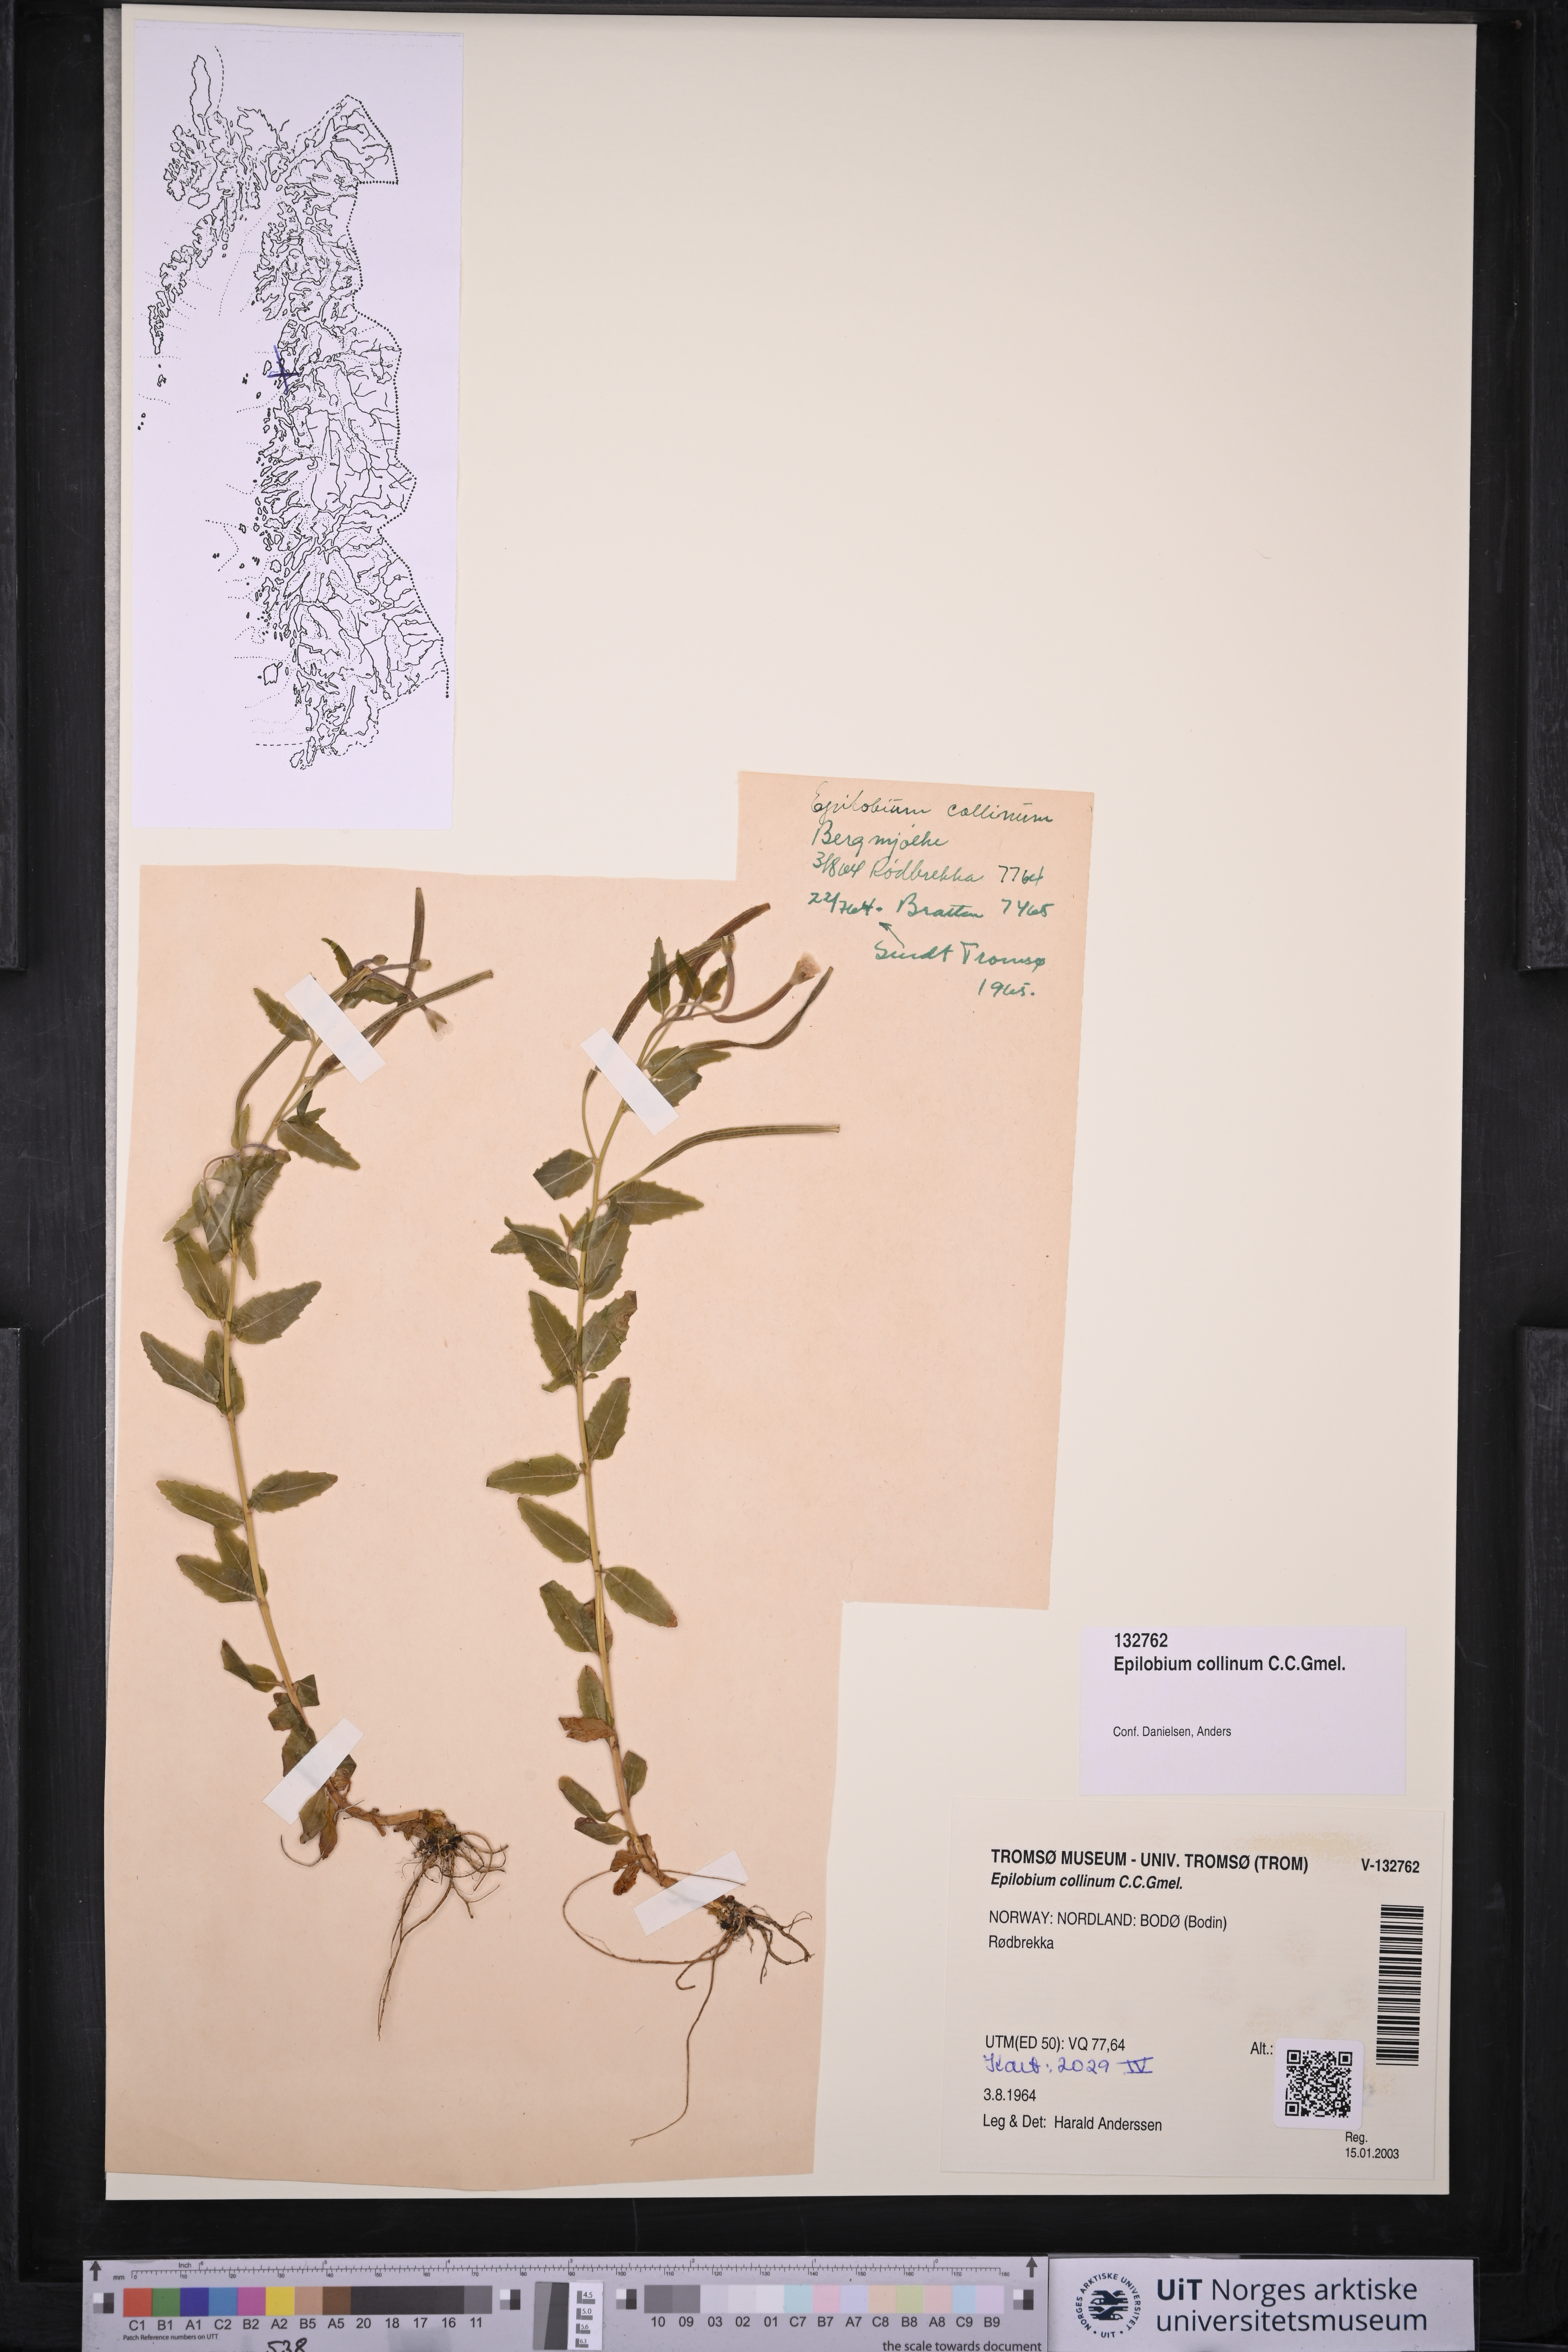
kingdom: Plantae
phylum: Tracheophyta
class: Magnoliopsida
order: Myrtales
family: Onagraceae
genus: Epilobium
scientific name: Epilobium collinum
